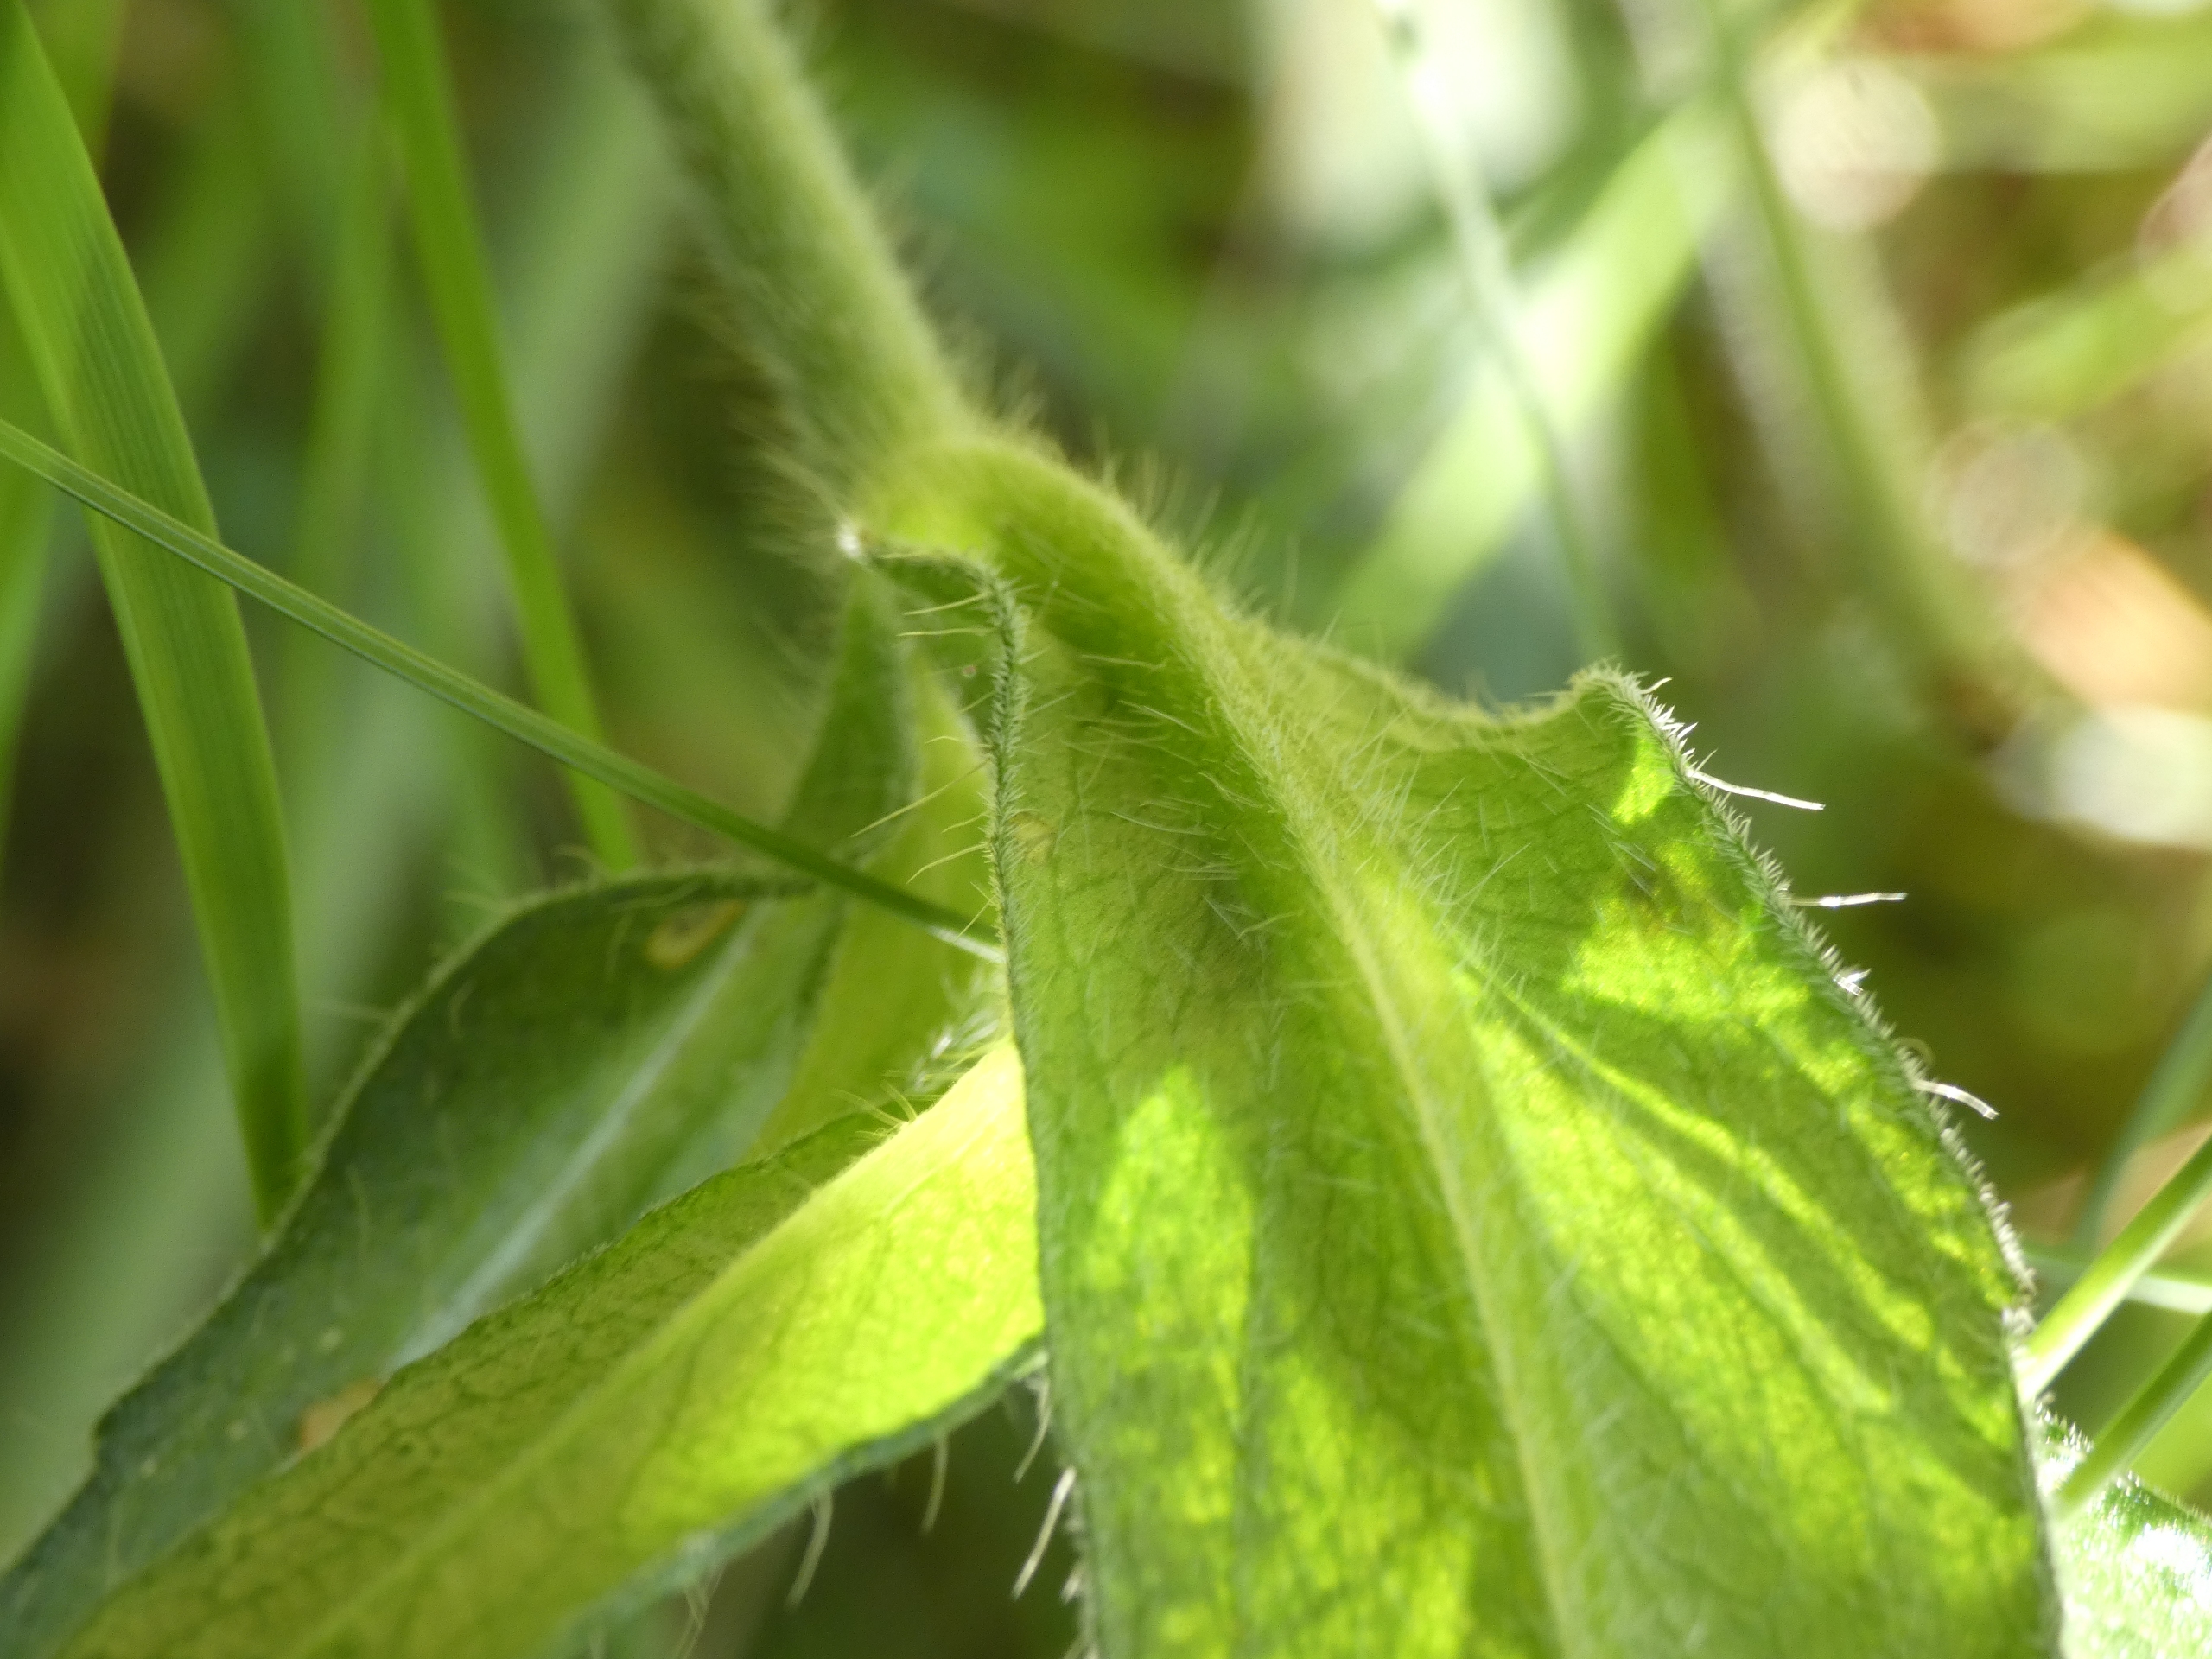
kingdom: Plantae
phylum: Tracheophyta
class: Magnoliopsida
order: Dipsacales
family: Caprifoliaceae
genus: Knautia
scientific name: Knautia arvensis
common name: Blåhat
